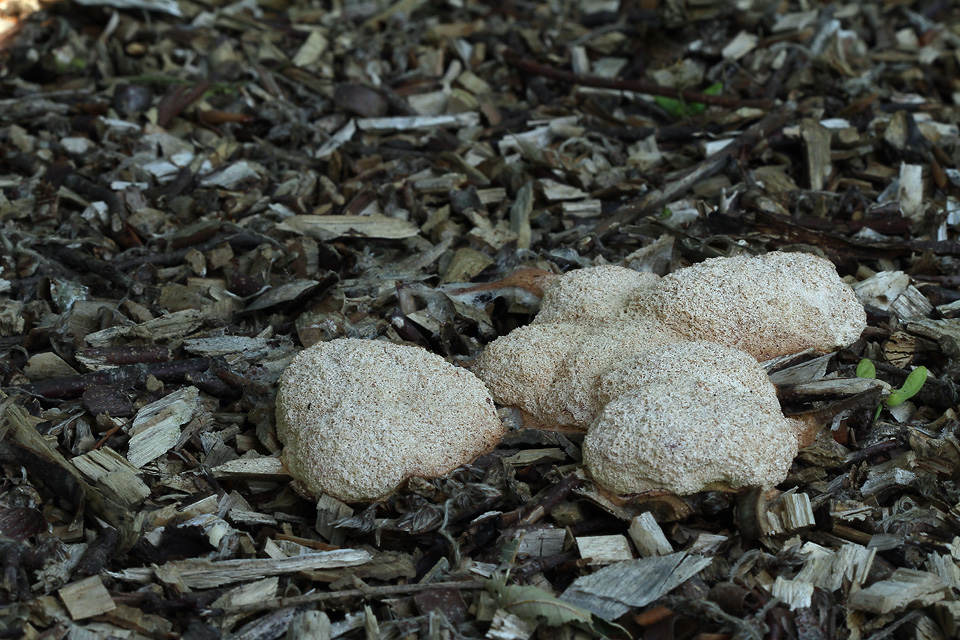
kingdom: Protozoa
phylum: Mycetozoa
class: Myxomycetes
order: Physarales
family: Physaraceae
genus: Fuligo
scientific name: Fuligo septica
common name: Dog vomit slime mold
